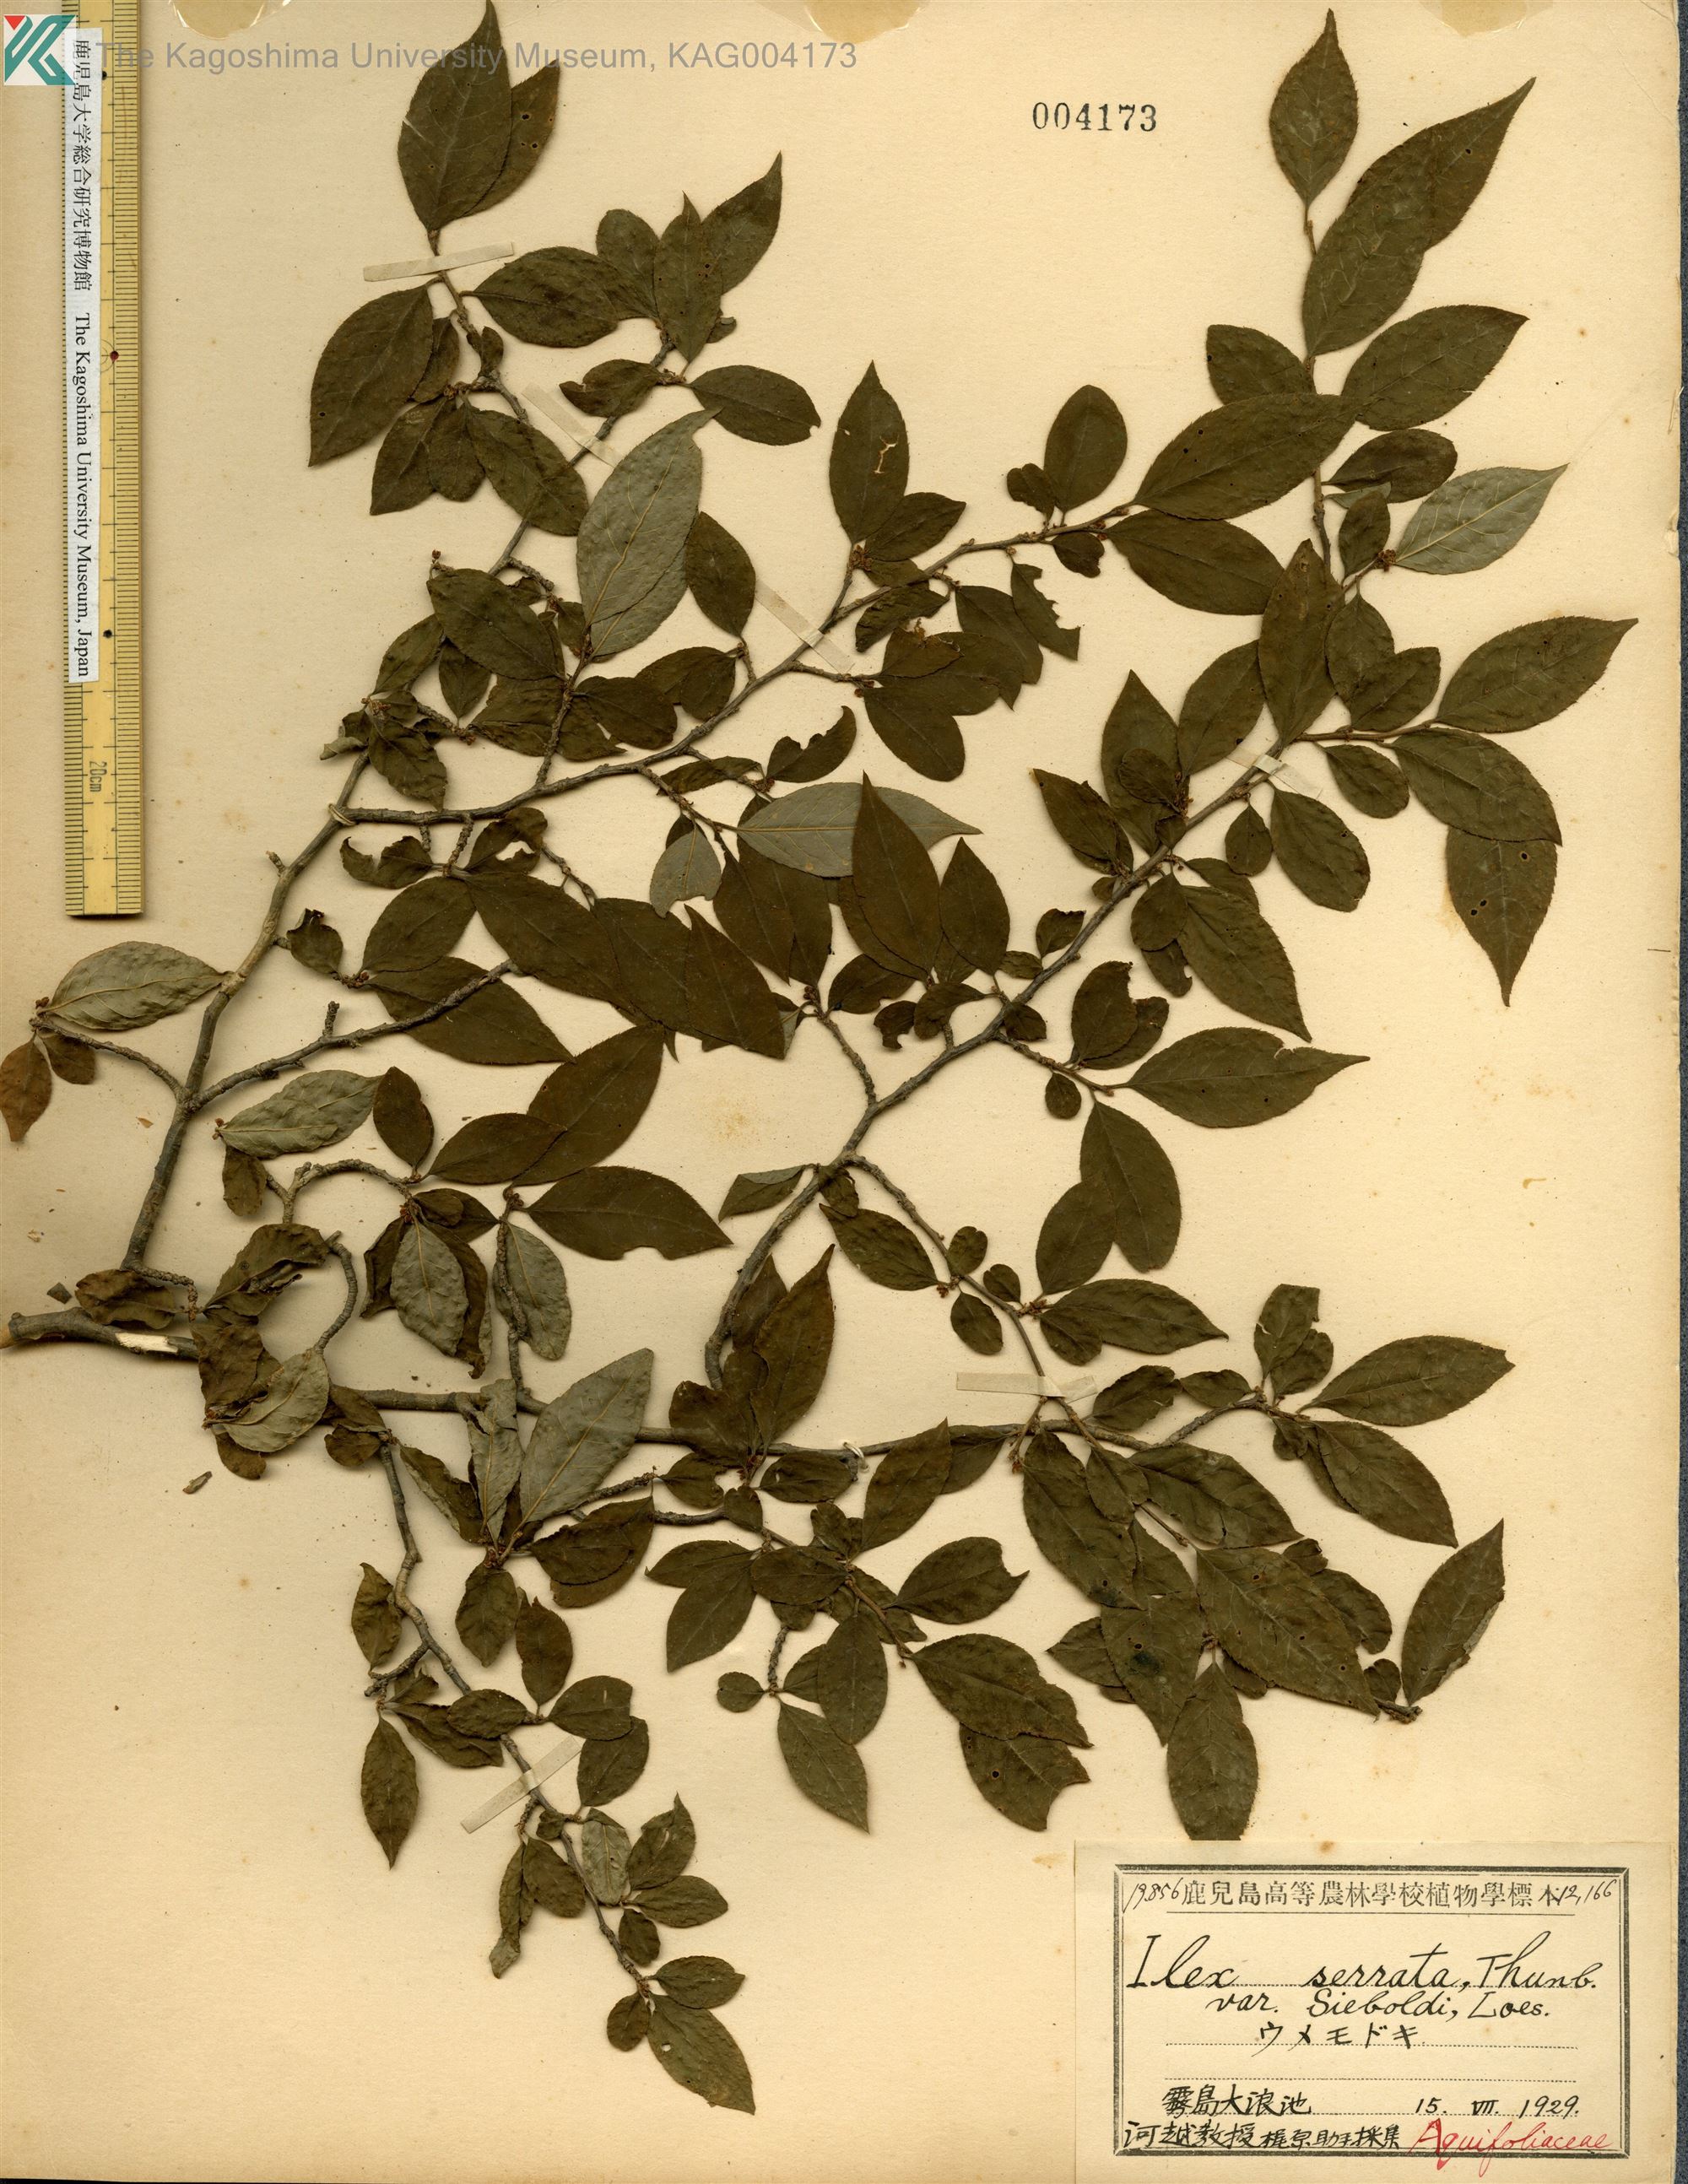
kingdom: Plantae
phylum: Tracheophyta
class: Magnoliopsida
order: Aquifoliales
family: Aquifoliaceae
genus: Ilex
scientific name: Ilex serrata
